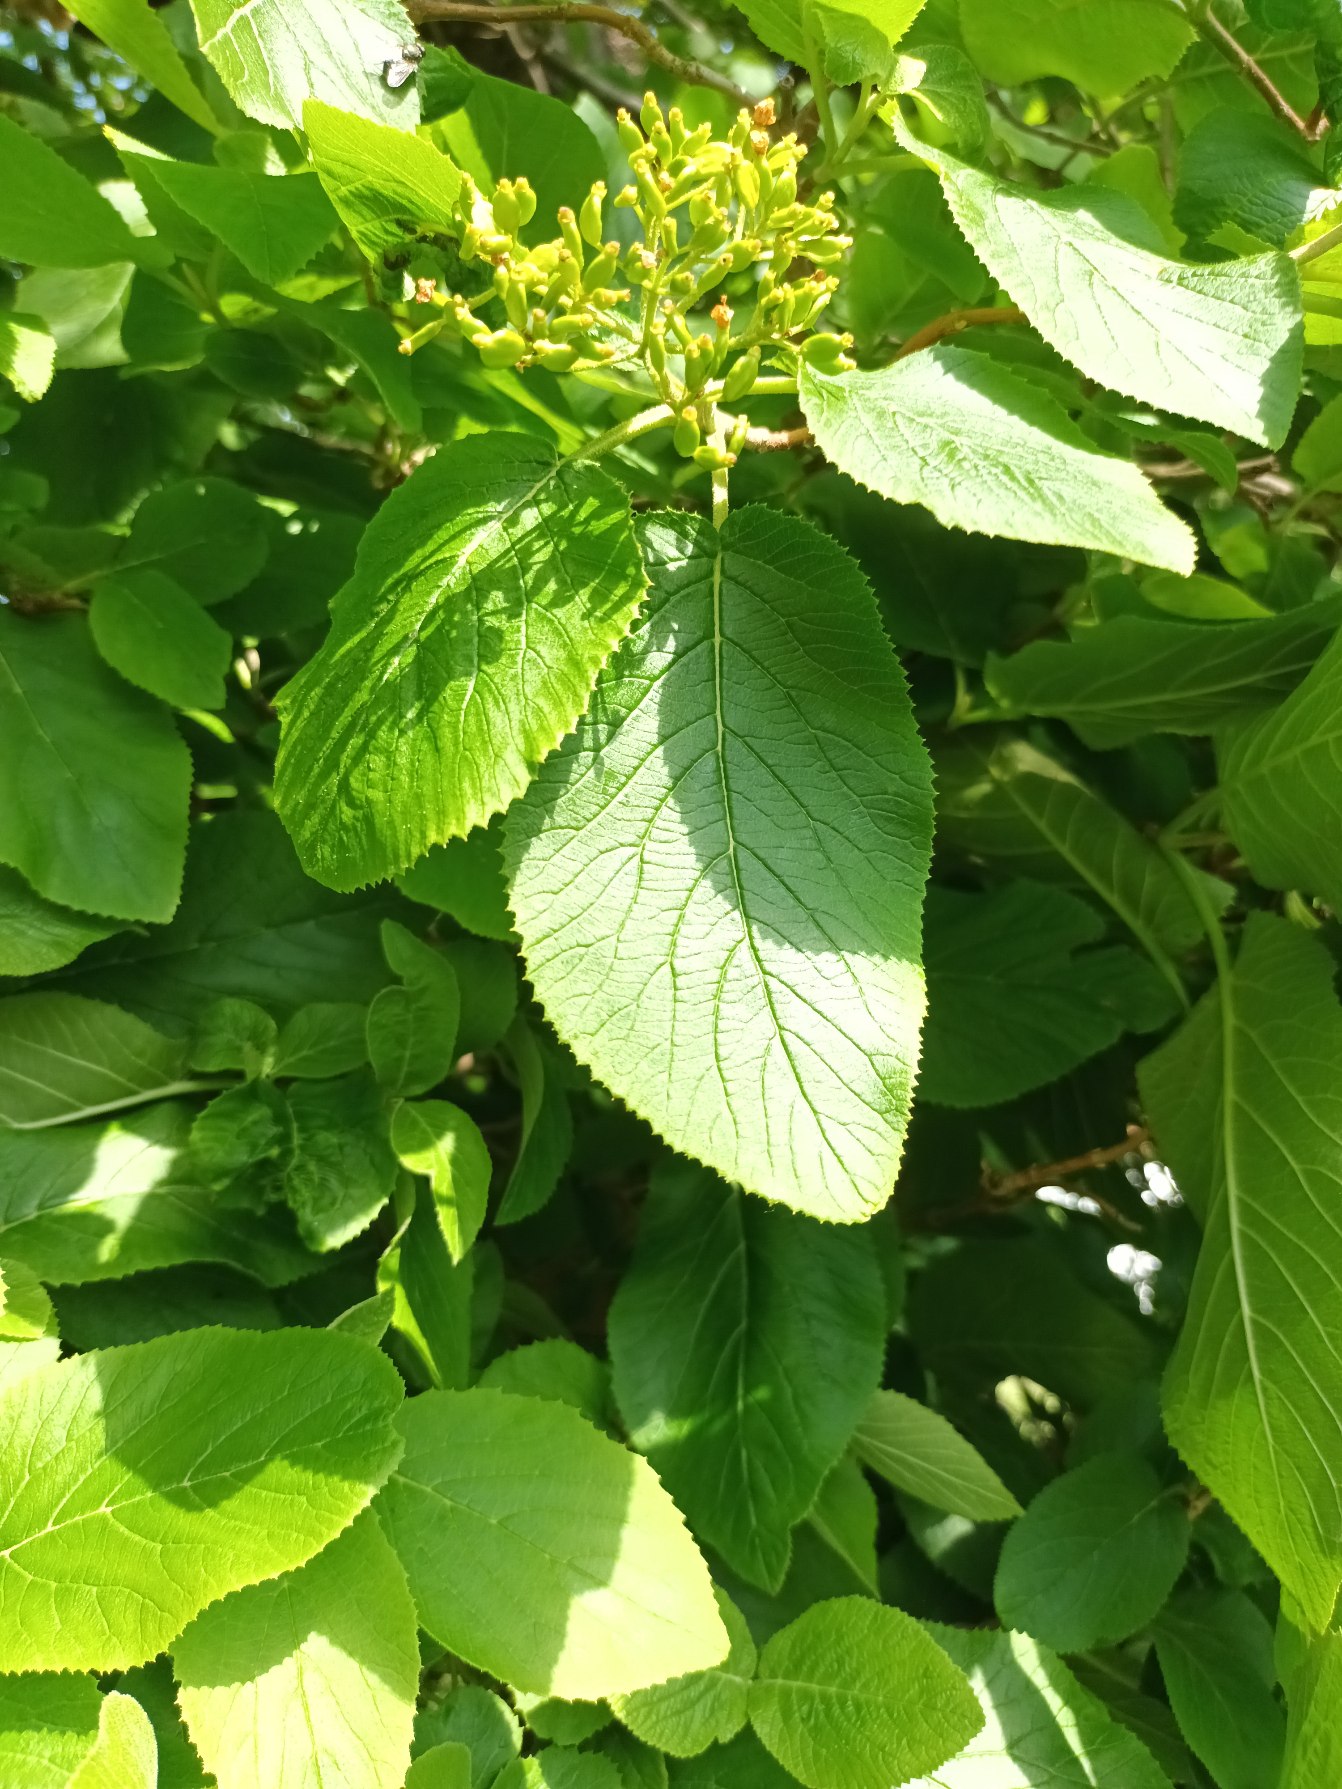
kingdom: Plantae
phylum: Tracheophyta
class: Magnoliopsida
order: Dipsacales
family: Viburnaceae
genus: Viburnum
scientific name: Viburnum lantana
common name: Pibe-kvalkved
